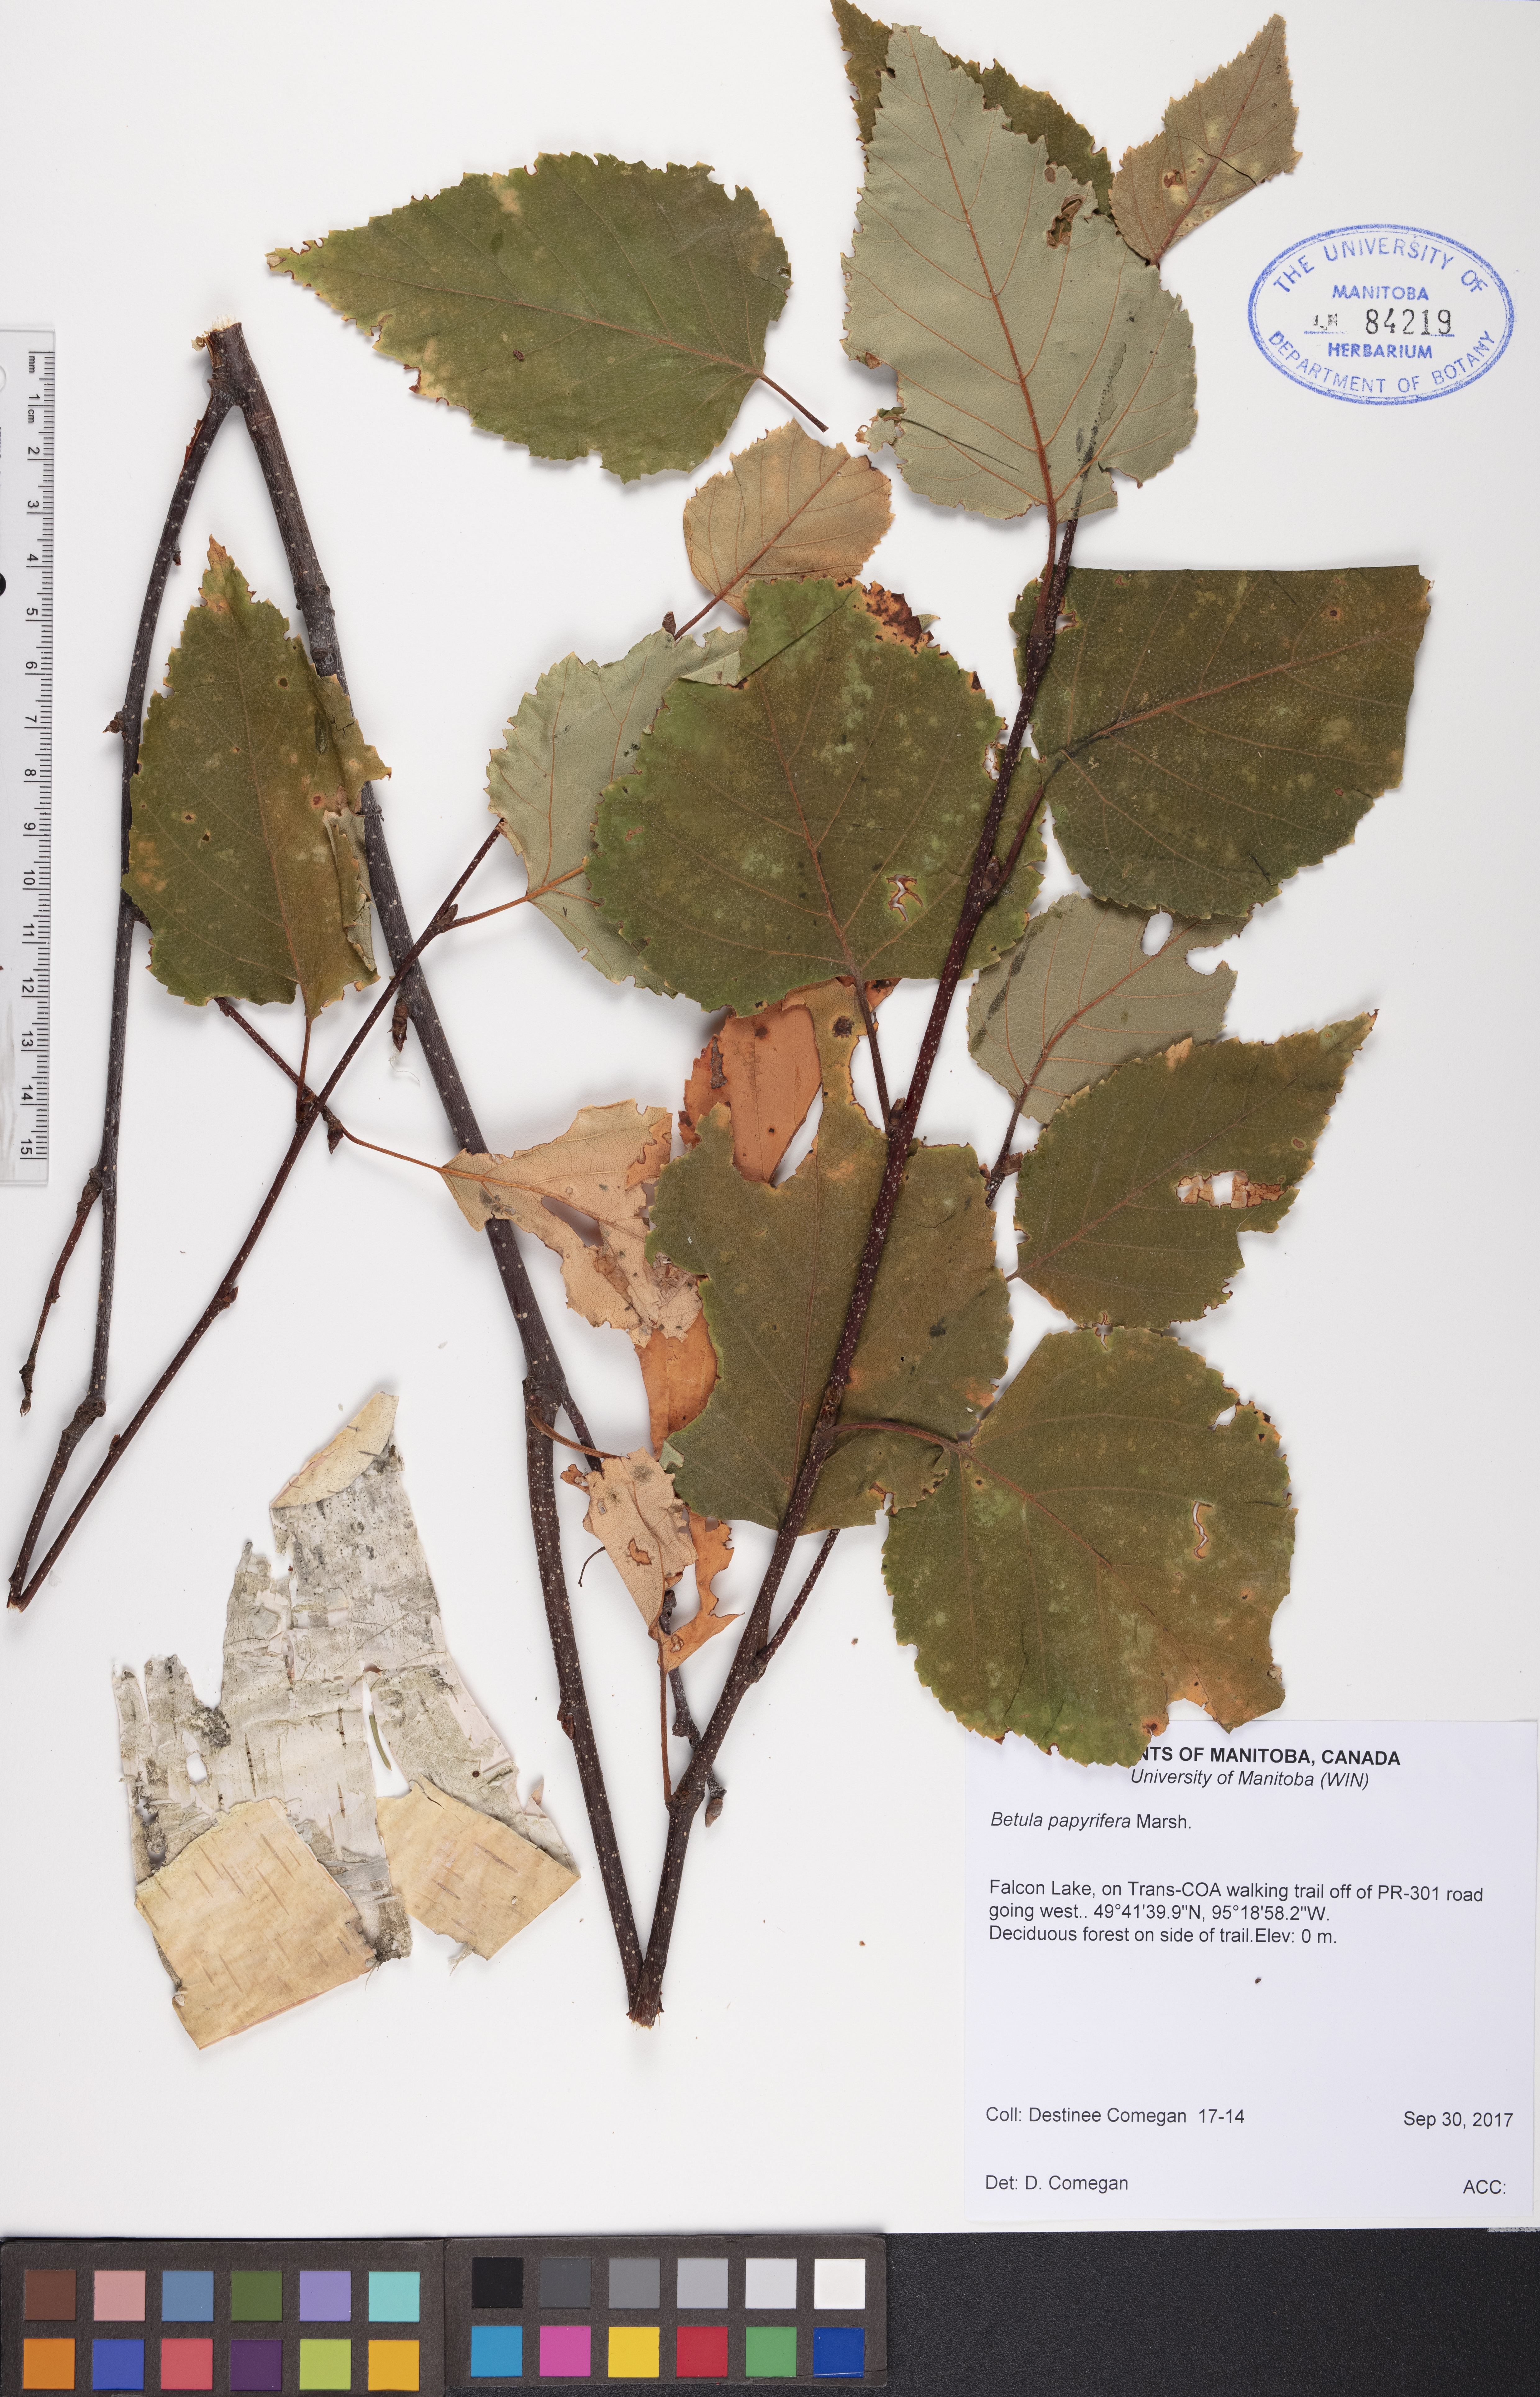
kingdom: Plantae
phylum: Tracheophyta
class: Magnoliopsida
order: Fagales
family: Betulaceae
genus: Betula
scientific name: Betula papyrifera
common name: Paper birch
